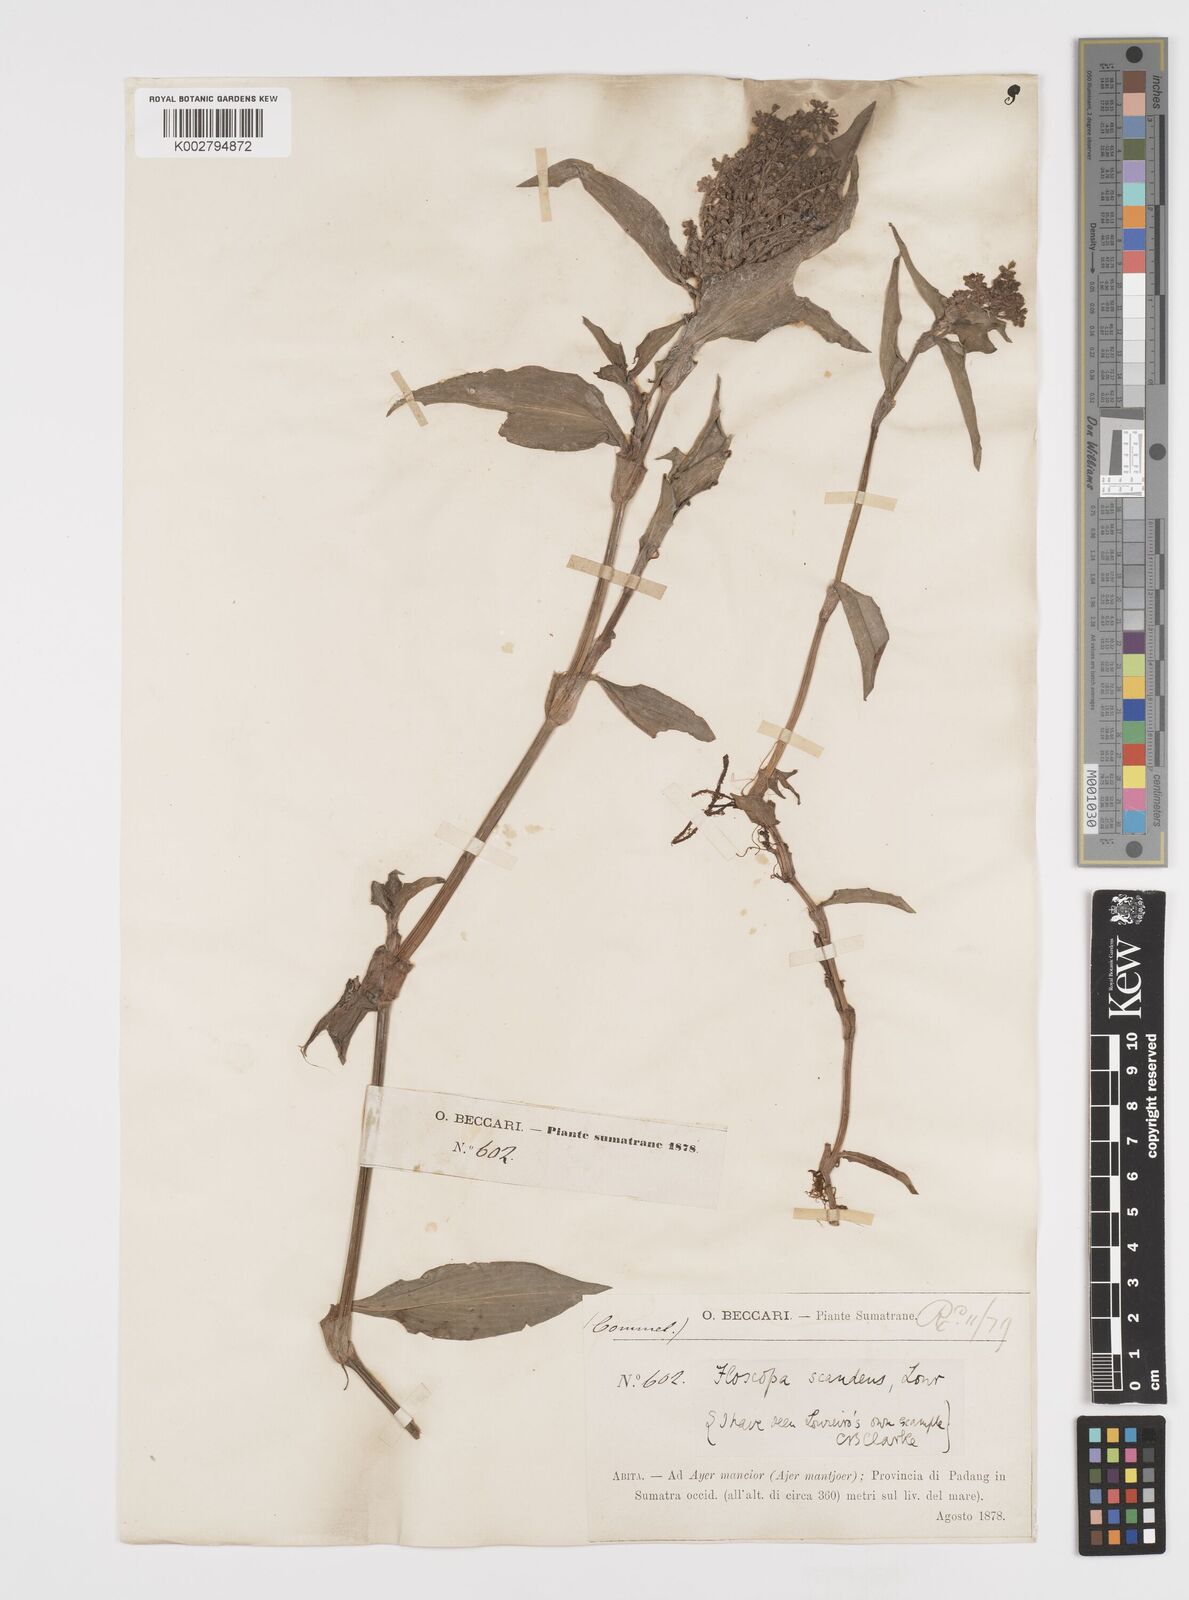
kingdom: Plantae
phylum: Tracheophyta
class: Liliopsida
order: Commelinales
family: Commelinaceae
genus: Floscopa
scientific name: Floscopa scandens
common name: Climbing flower cup
